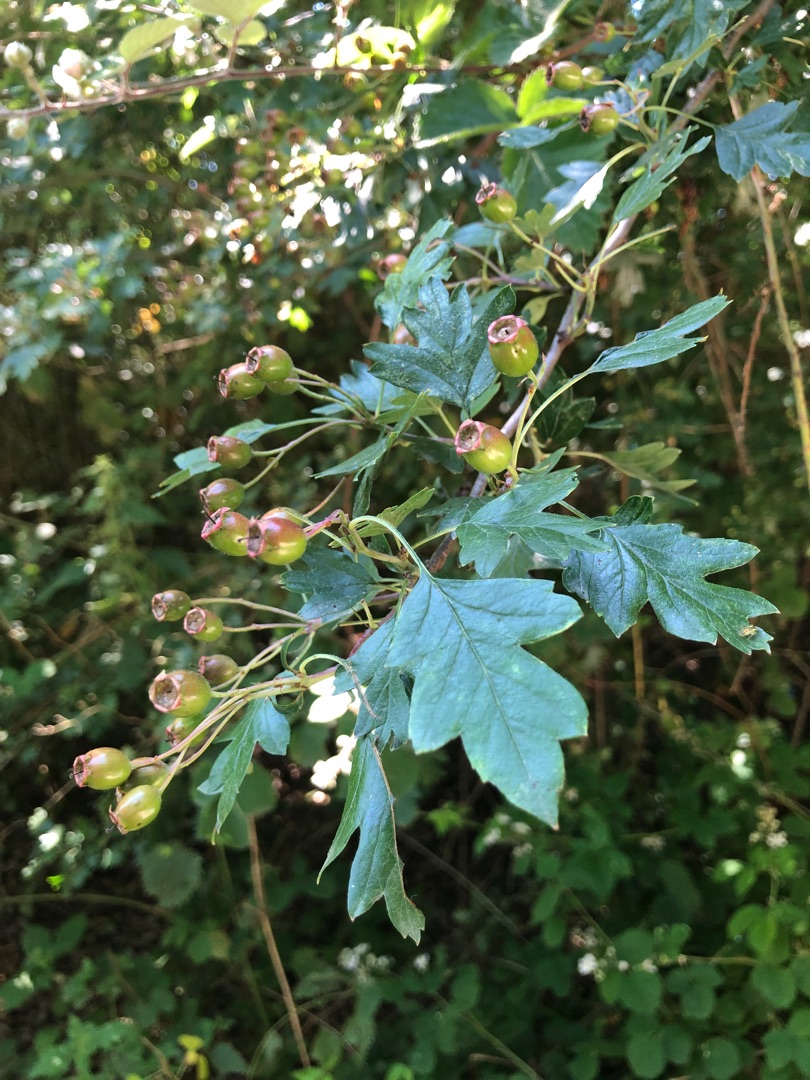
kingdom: Plantae
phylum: Tracheophyta
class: Magnoliopsida
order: Rosales
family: Rosaceae
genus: Crataegus
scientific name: Crataegus monogyna
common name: Engriflet hvidtjørn
